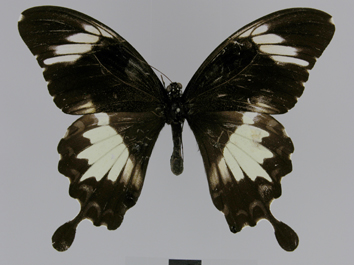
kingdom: Animalia
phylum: Arthropoda
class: Insecta
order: Lepidoptera
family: Papilionidae
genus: Papilio
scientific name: Papilio nephelus
